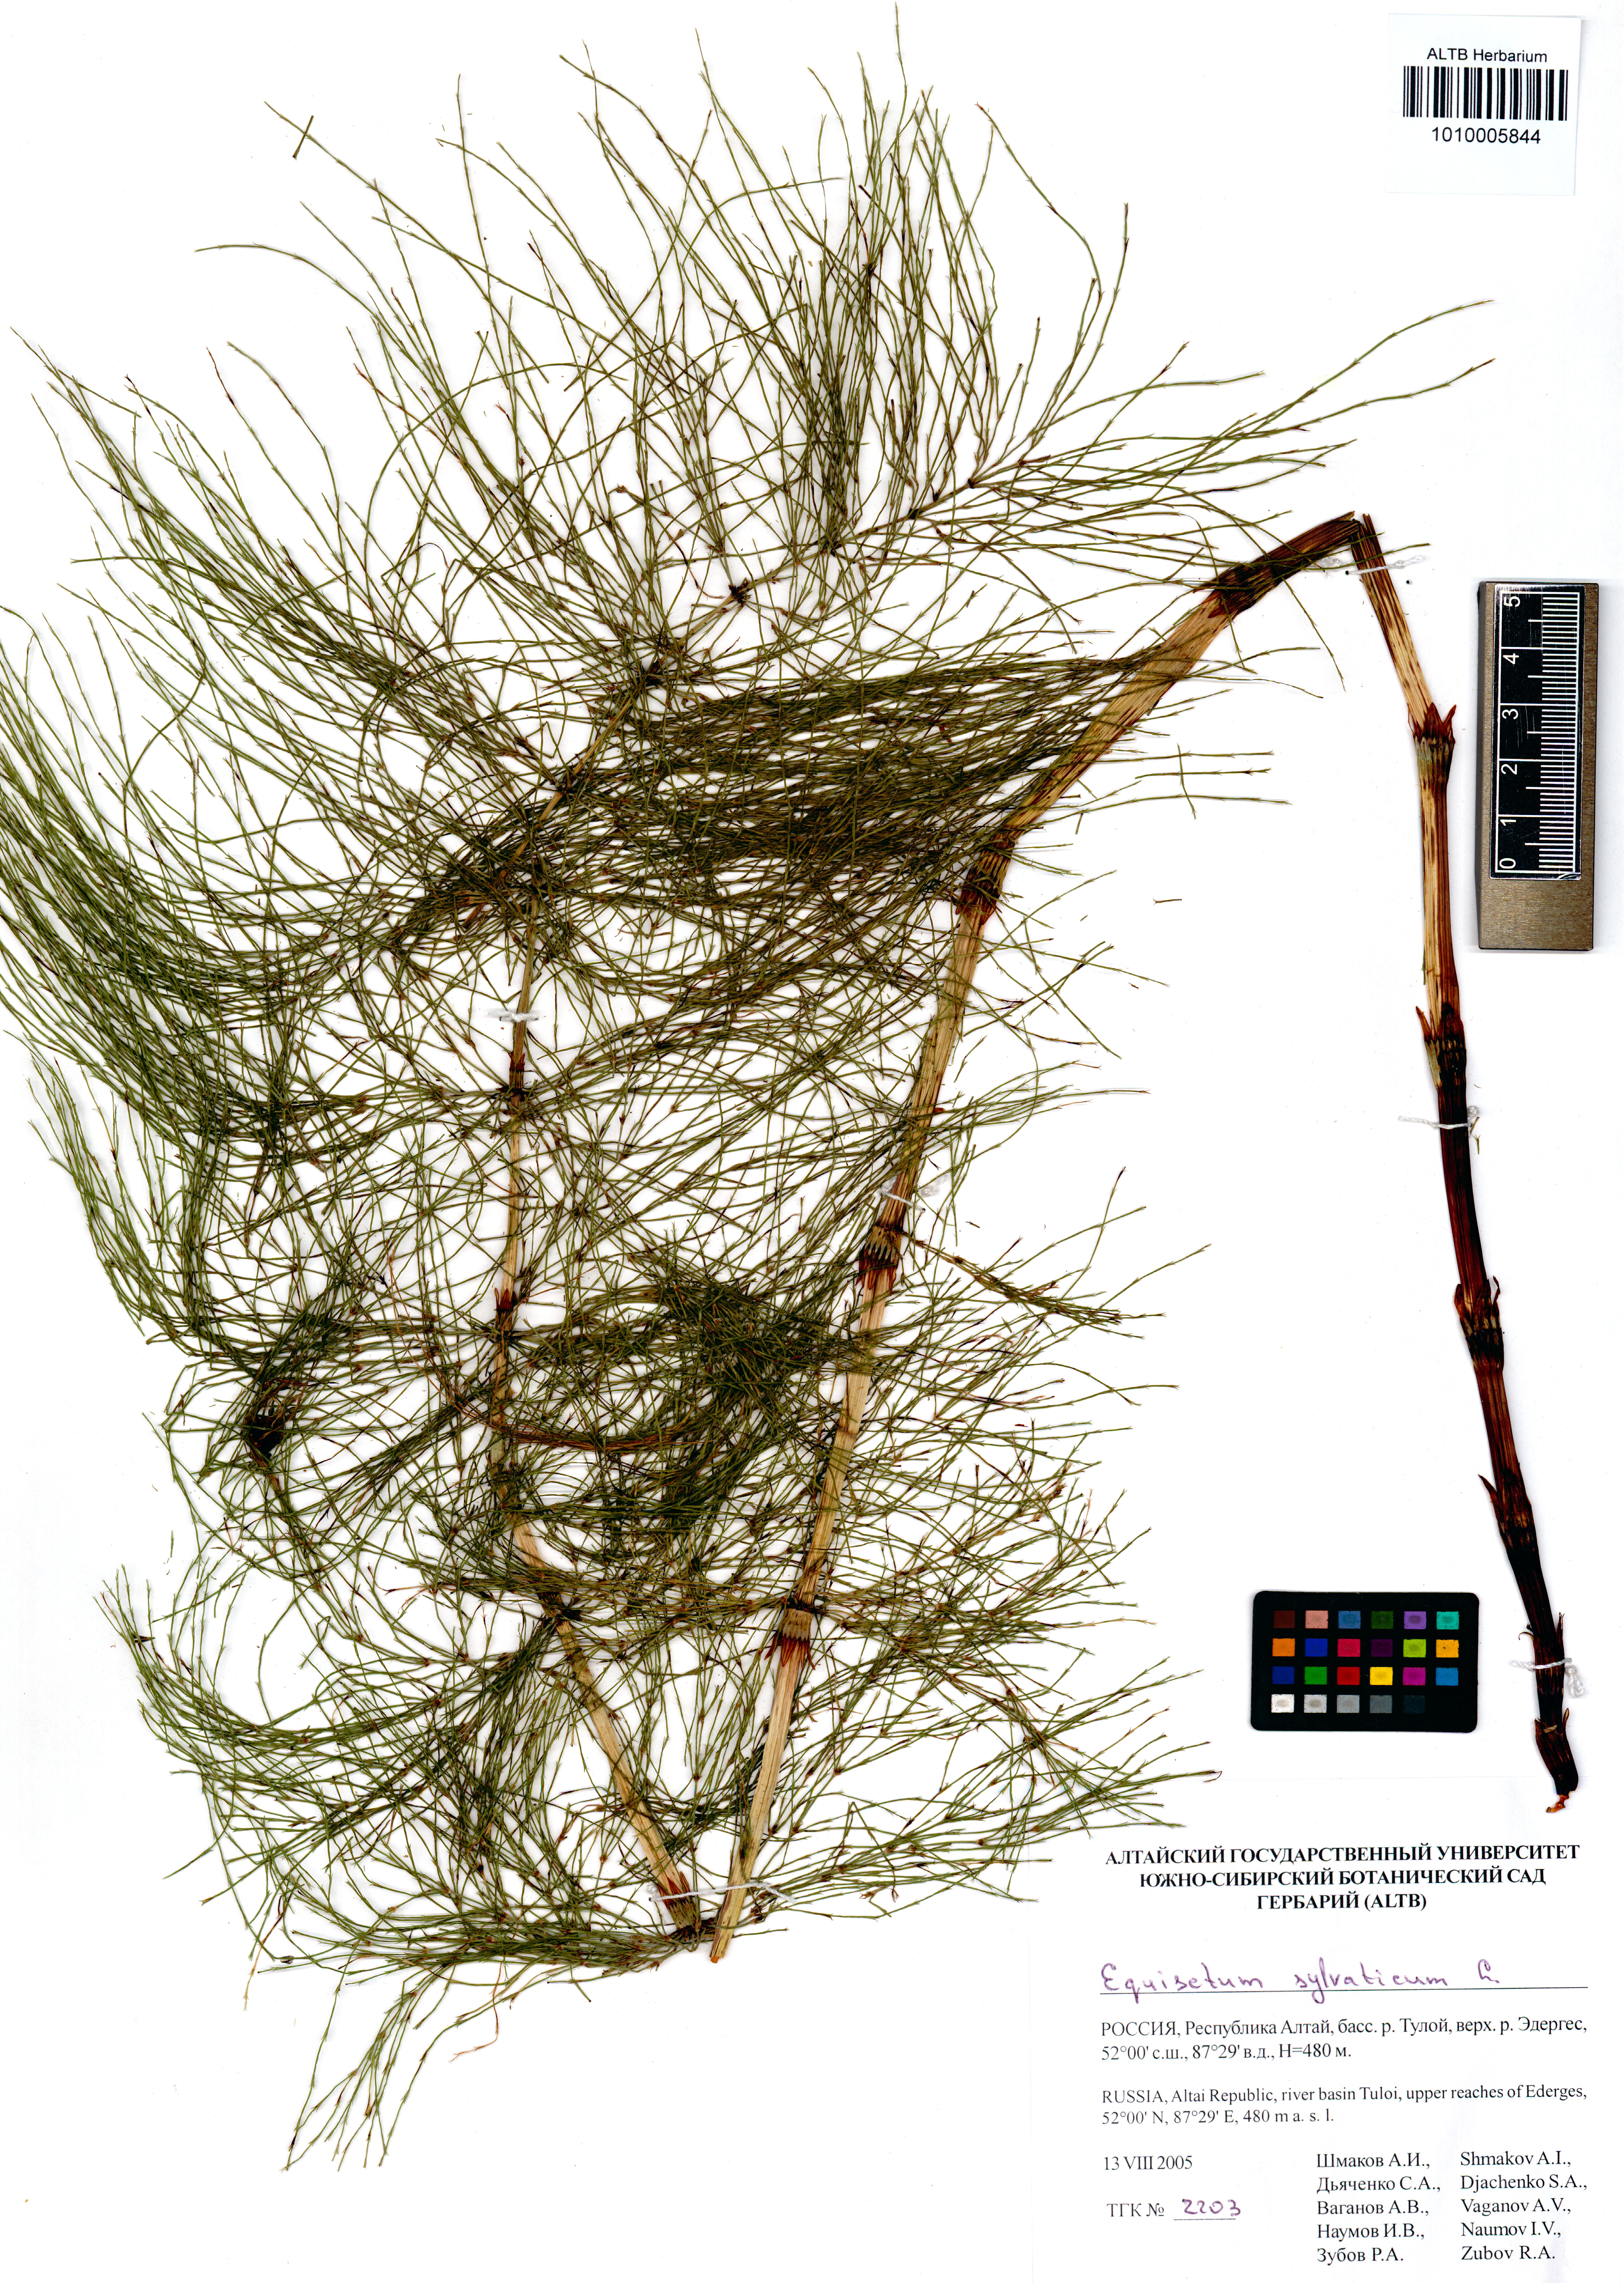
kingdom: Plantae
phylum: Tracheophyta
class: Polypodiopsida
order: Equisetales
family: Equisetaceae
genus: Equisetum
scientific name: Equisetum sylvaticum
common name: Wood horsetail
